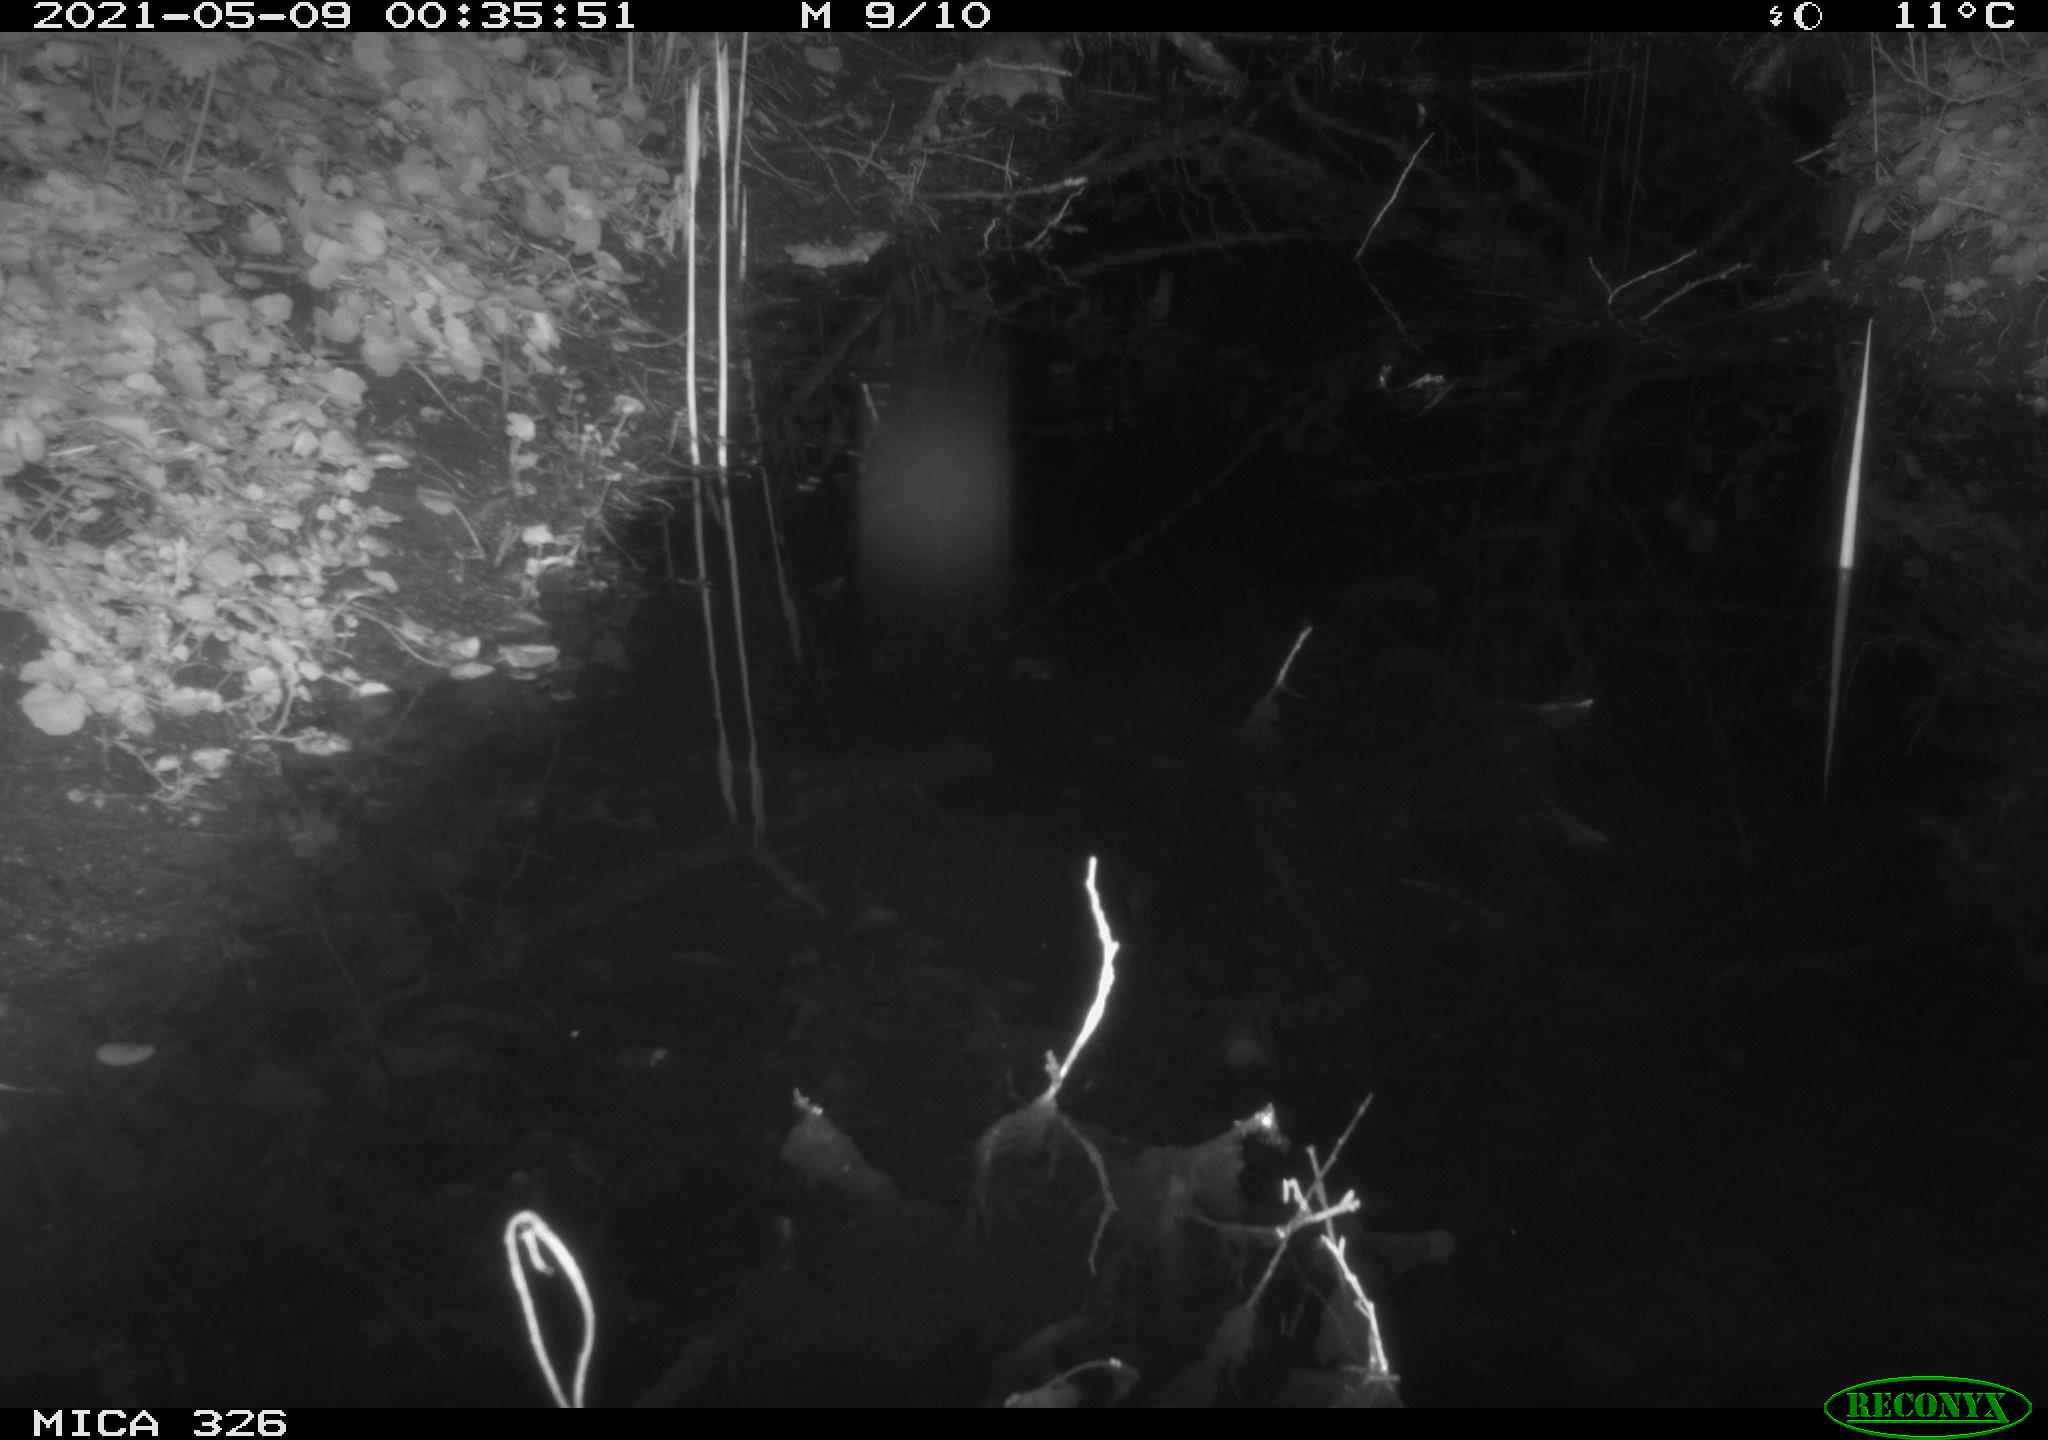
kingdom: Animalia
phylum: Chordata
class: Mammalia
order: Rodentia
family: Muridae
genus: Rattus
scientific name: Rattus norvegicus
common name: Brown rat
